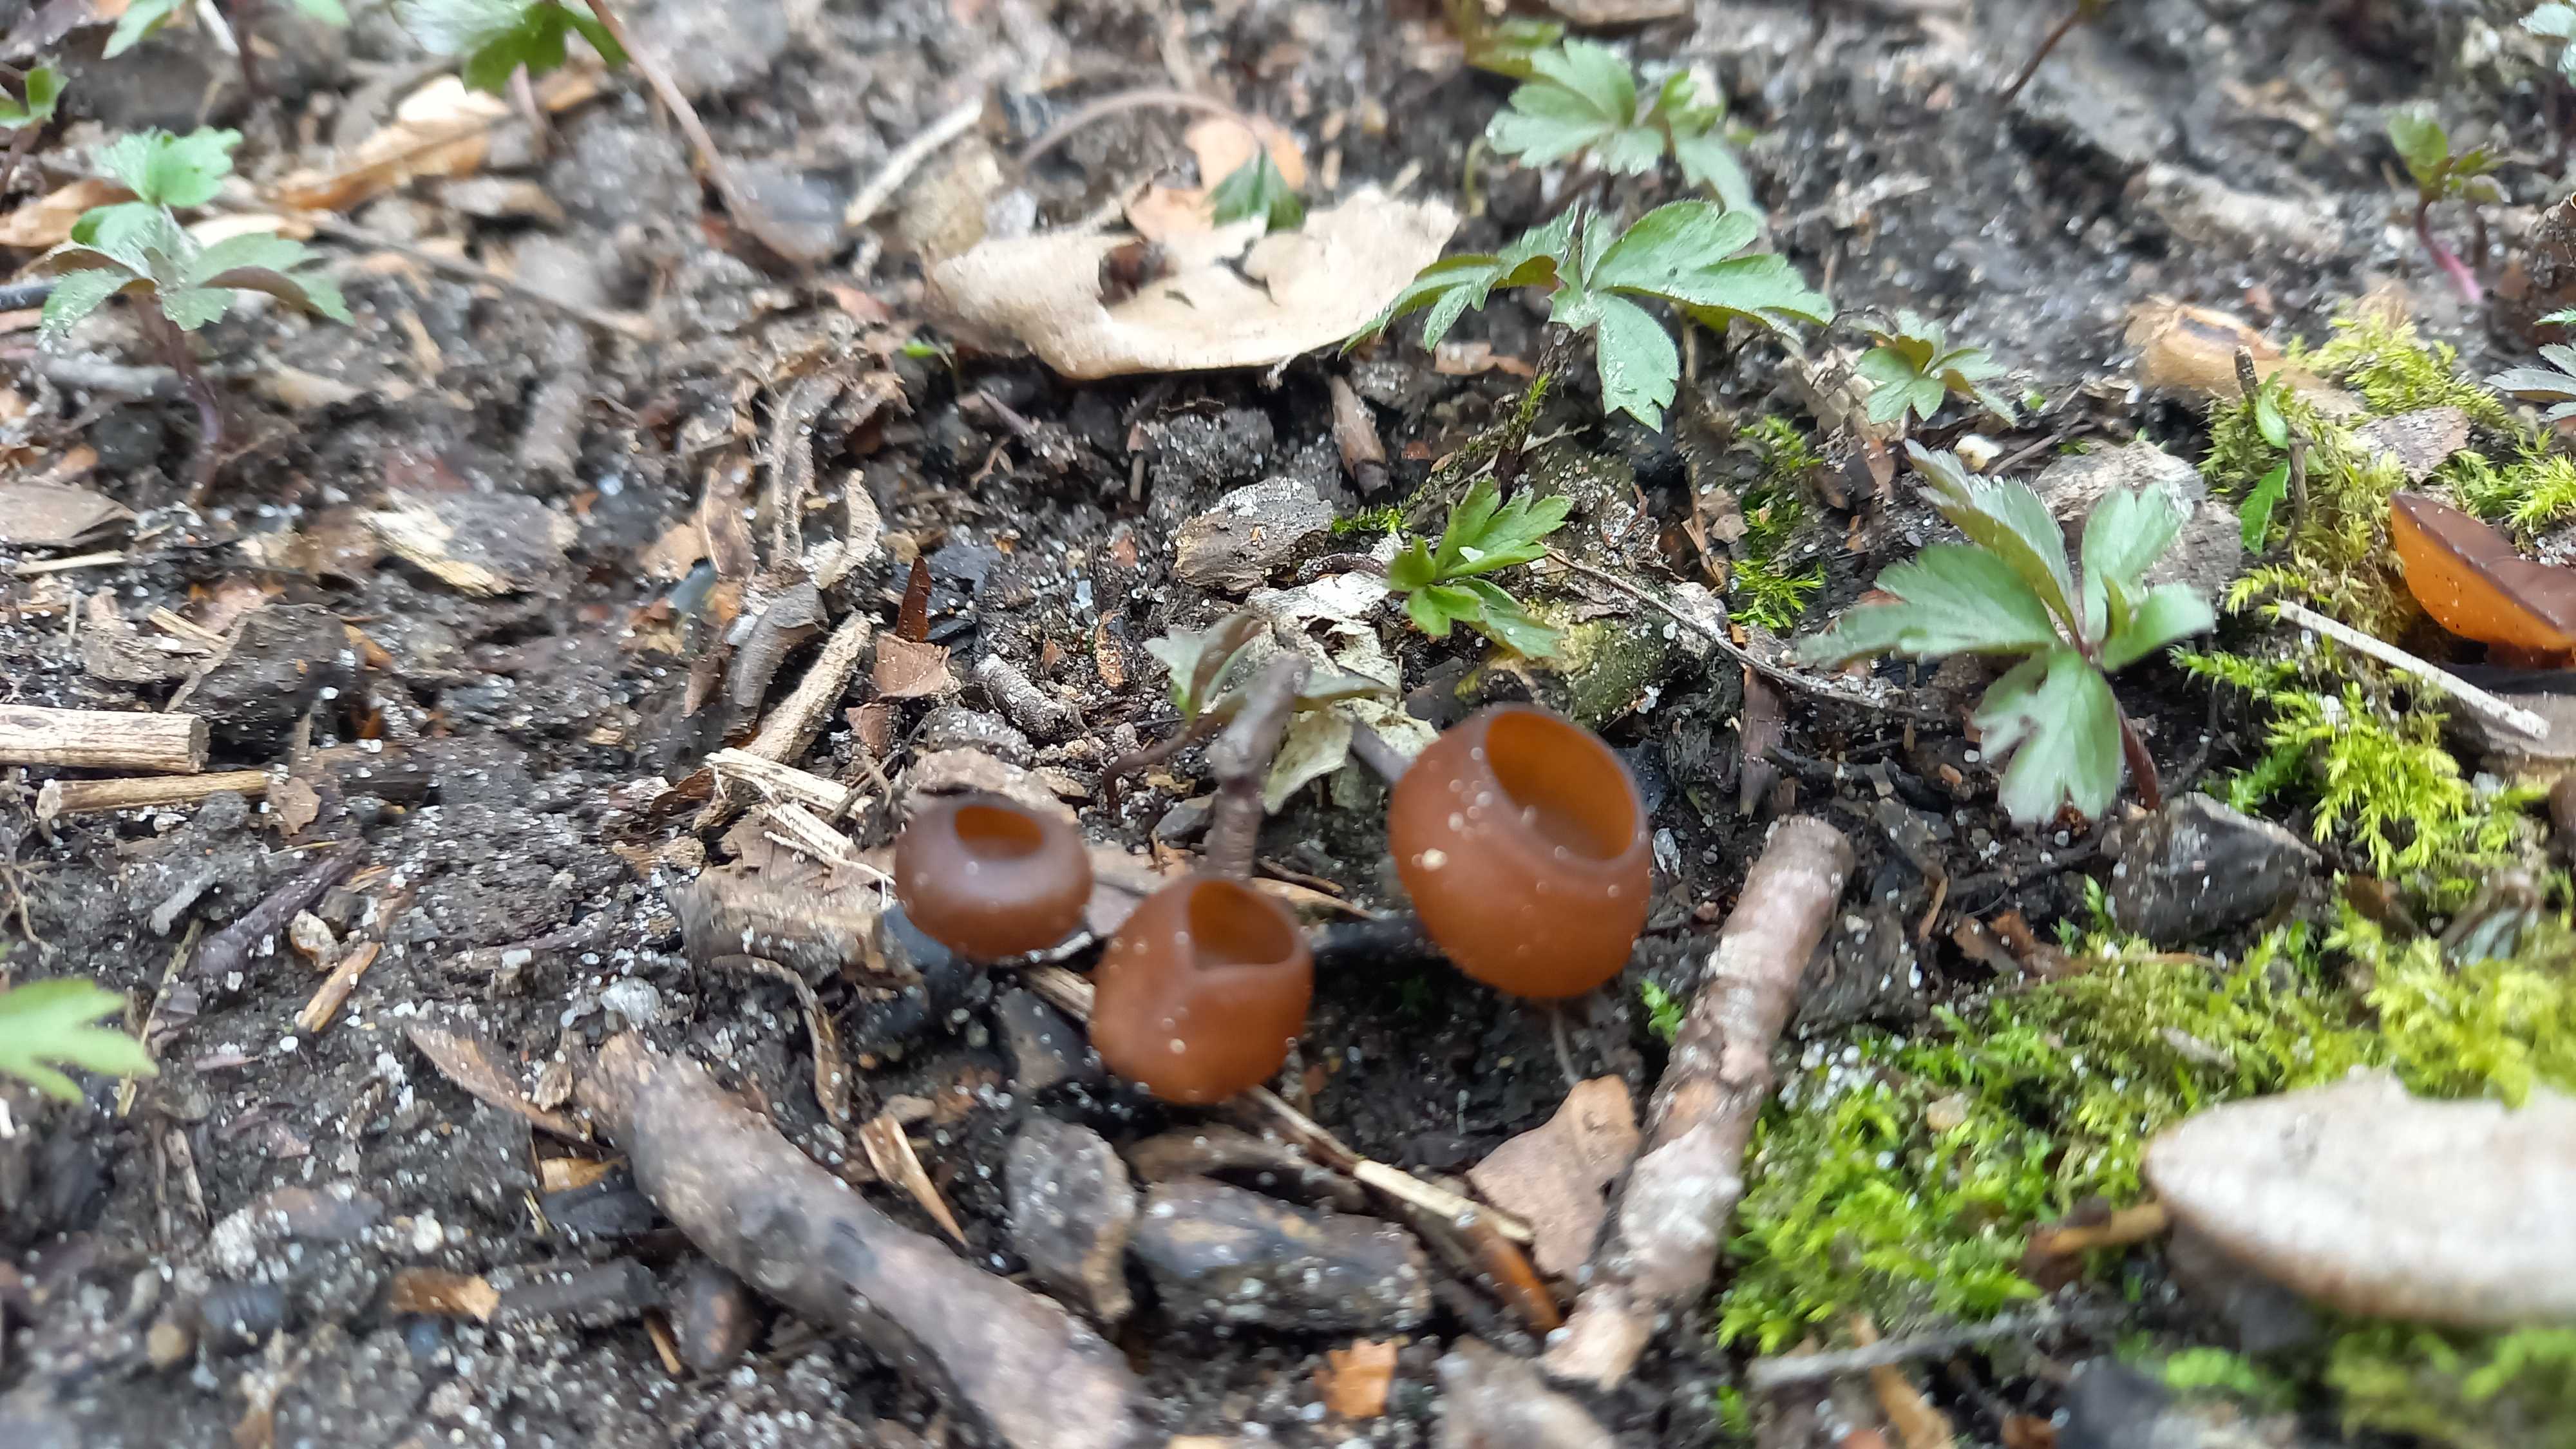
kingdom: Fungi
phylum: Ascomycota
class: Leotiomycetes
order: Helotiales
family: Sclerotiniaceae
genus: Dumontinia
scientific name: Dumontinia tuberosa
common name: anemone-knoldskive
